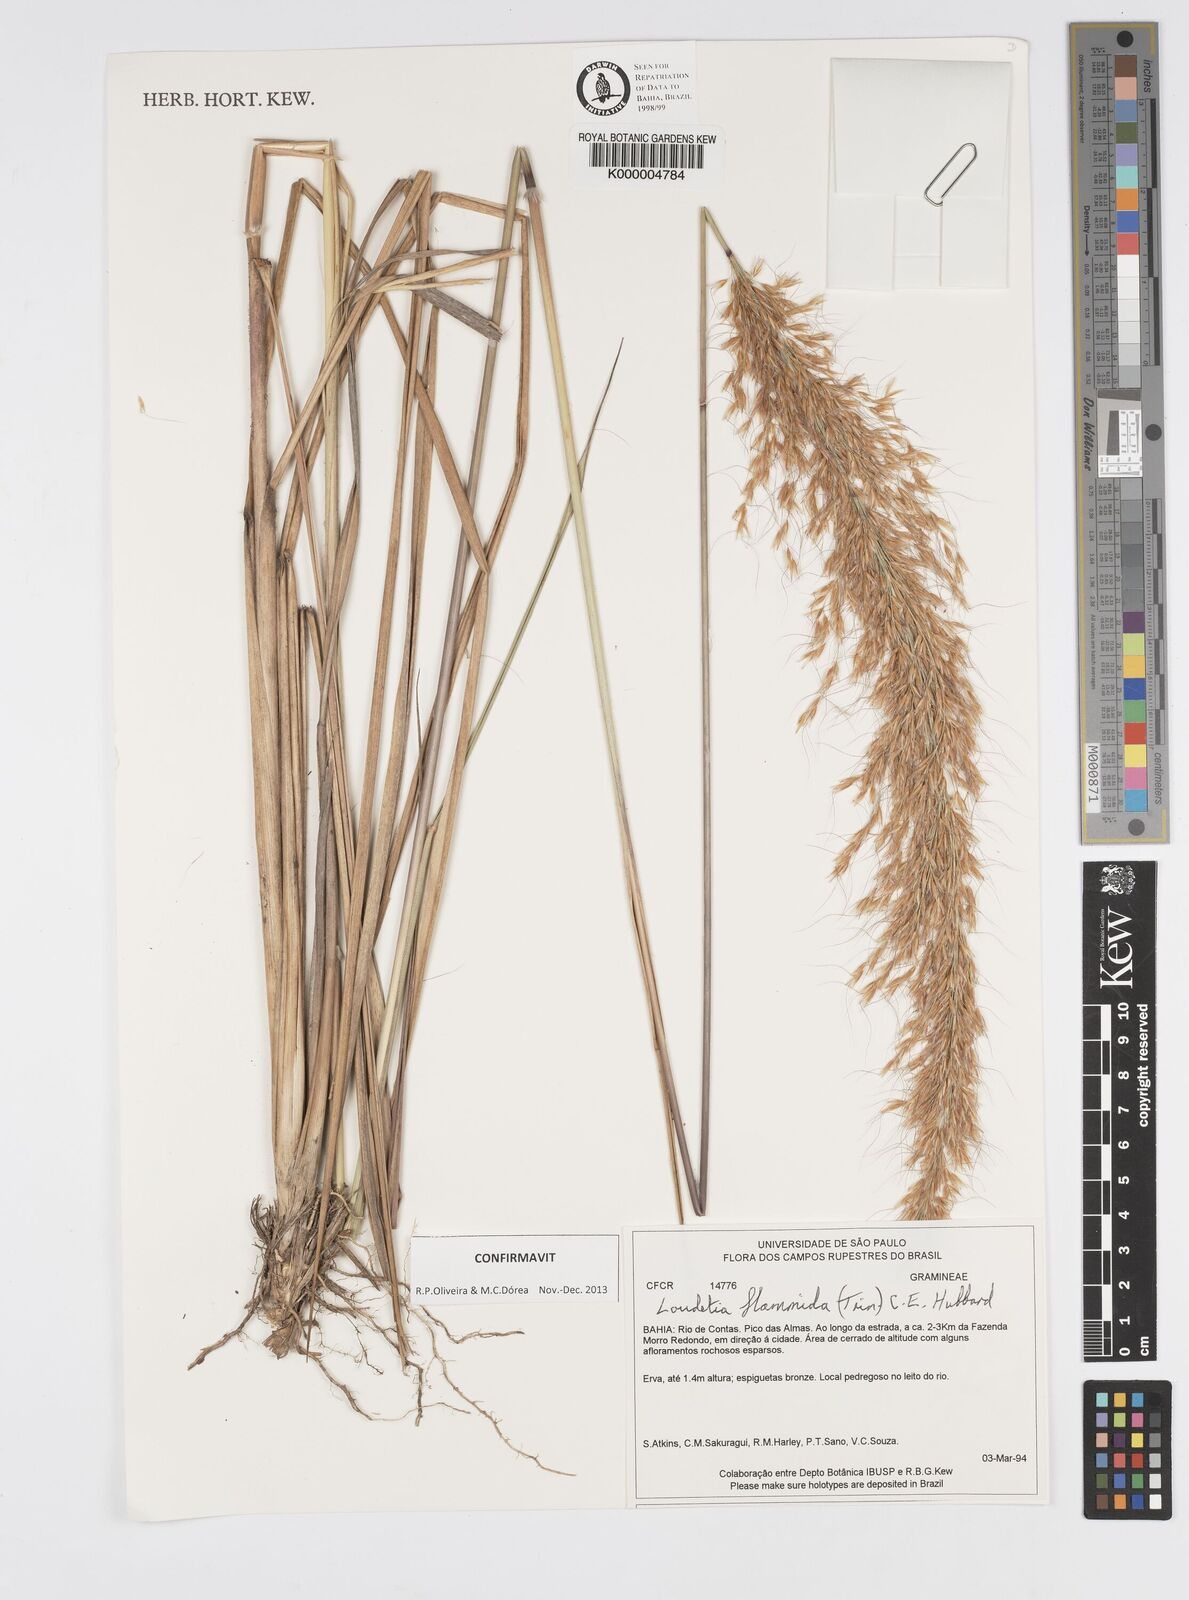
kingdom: Plantae
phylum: Tracheophyta
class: Liliopsida
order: Poales
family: Poaceae
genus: Loudetia
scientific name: Loudetia flammida
